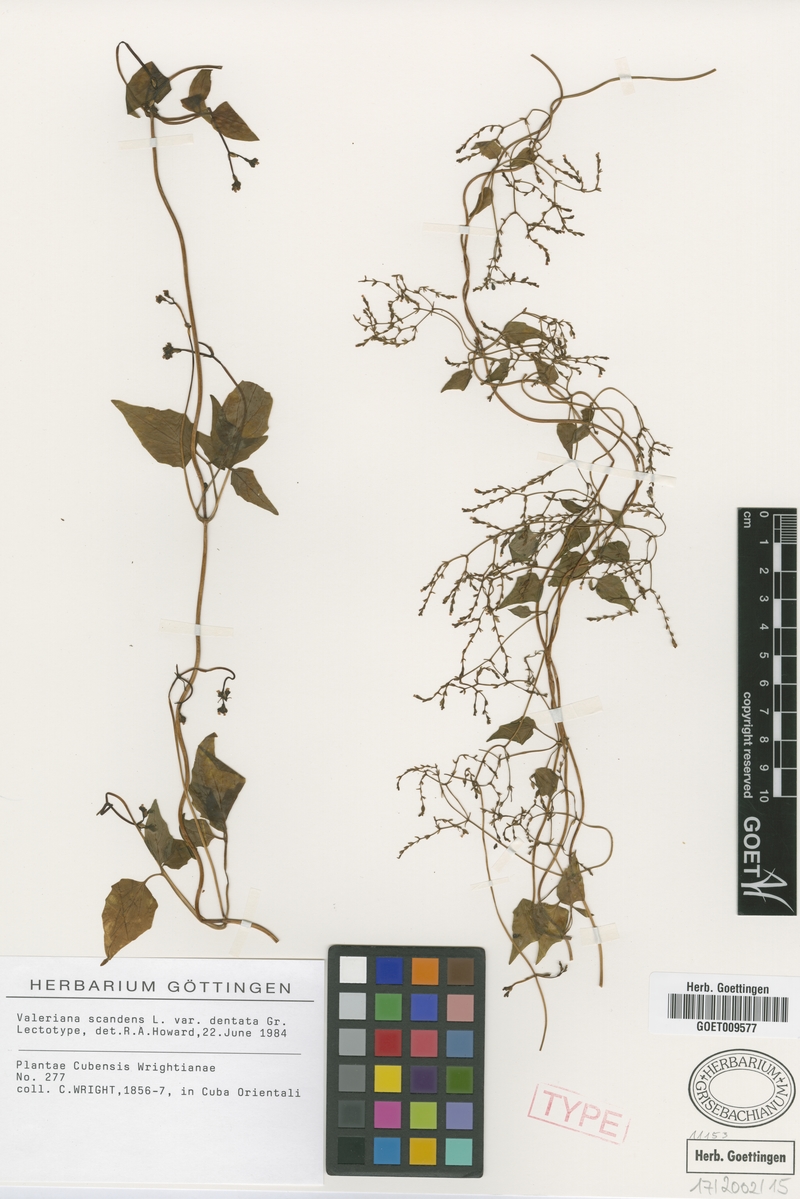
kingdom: Plantae
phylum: Tracheophyta
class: Magnoliopsida
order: Dipsacales
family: Caprifoliaceae
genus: Valeriana
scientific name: Valeriana
